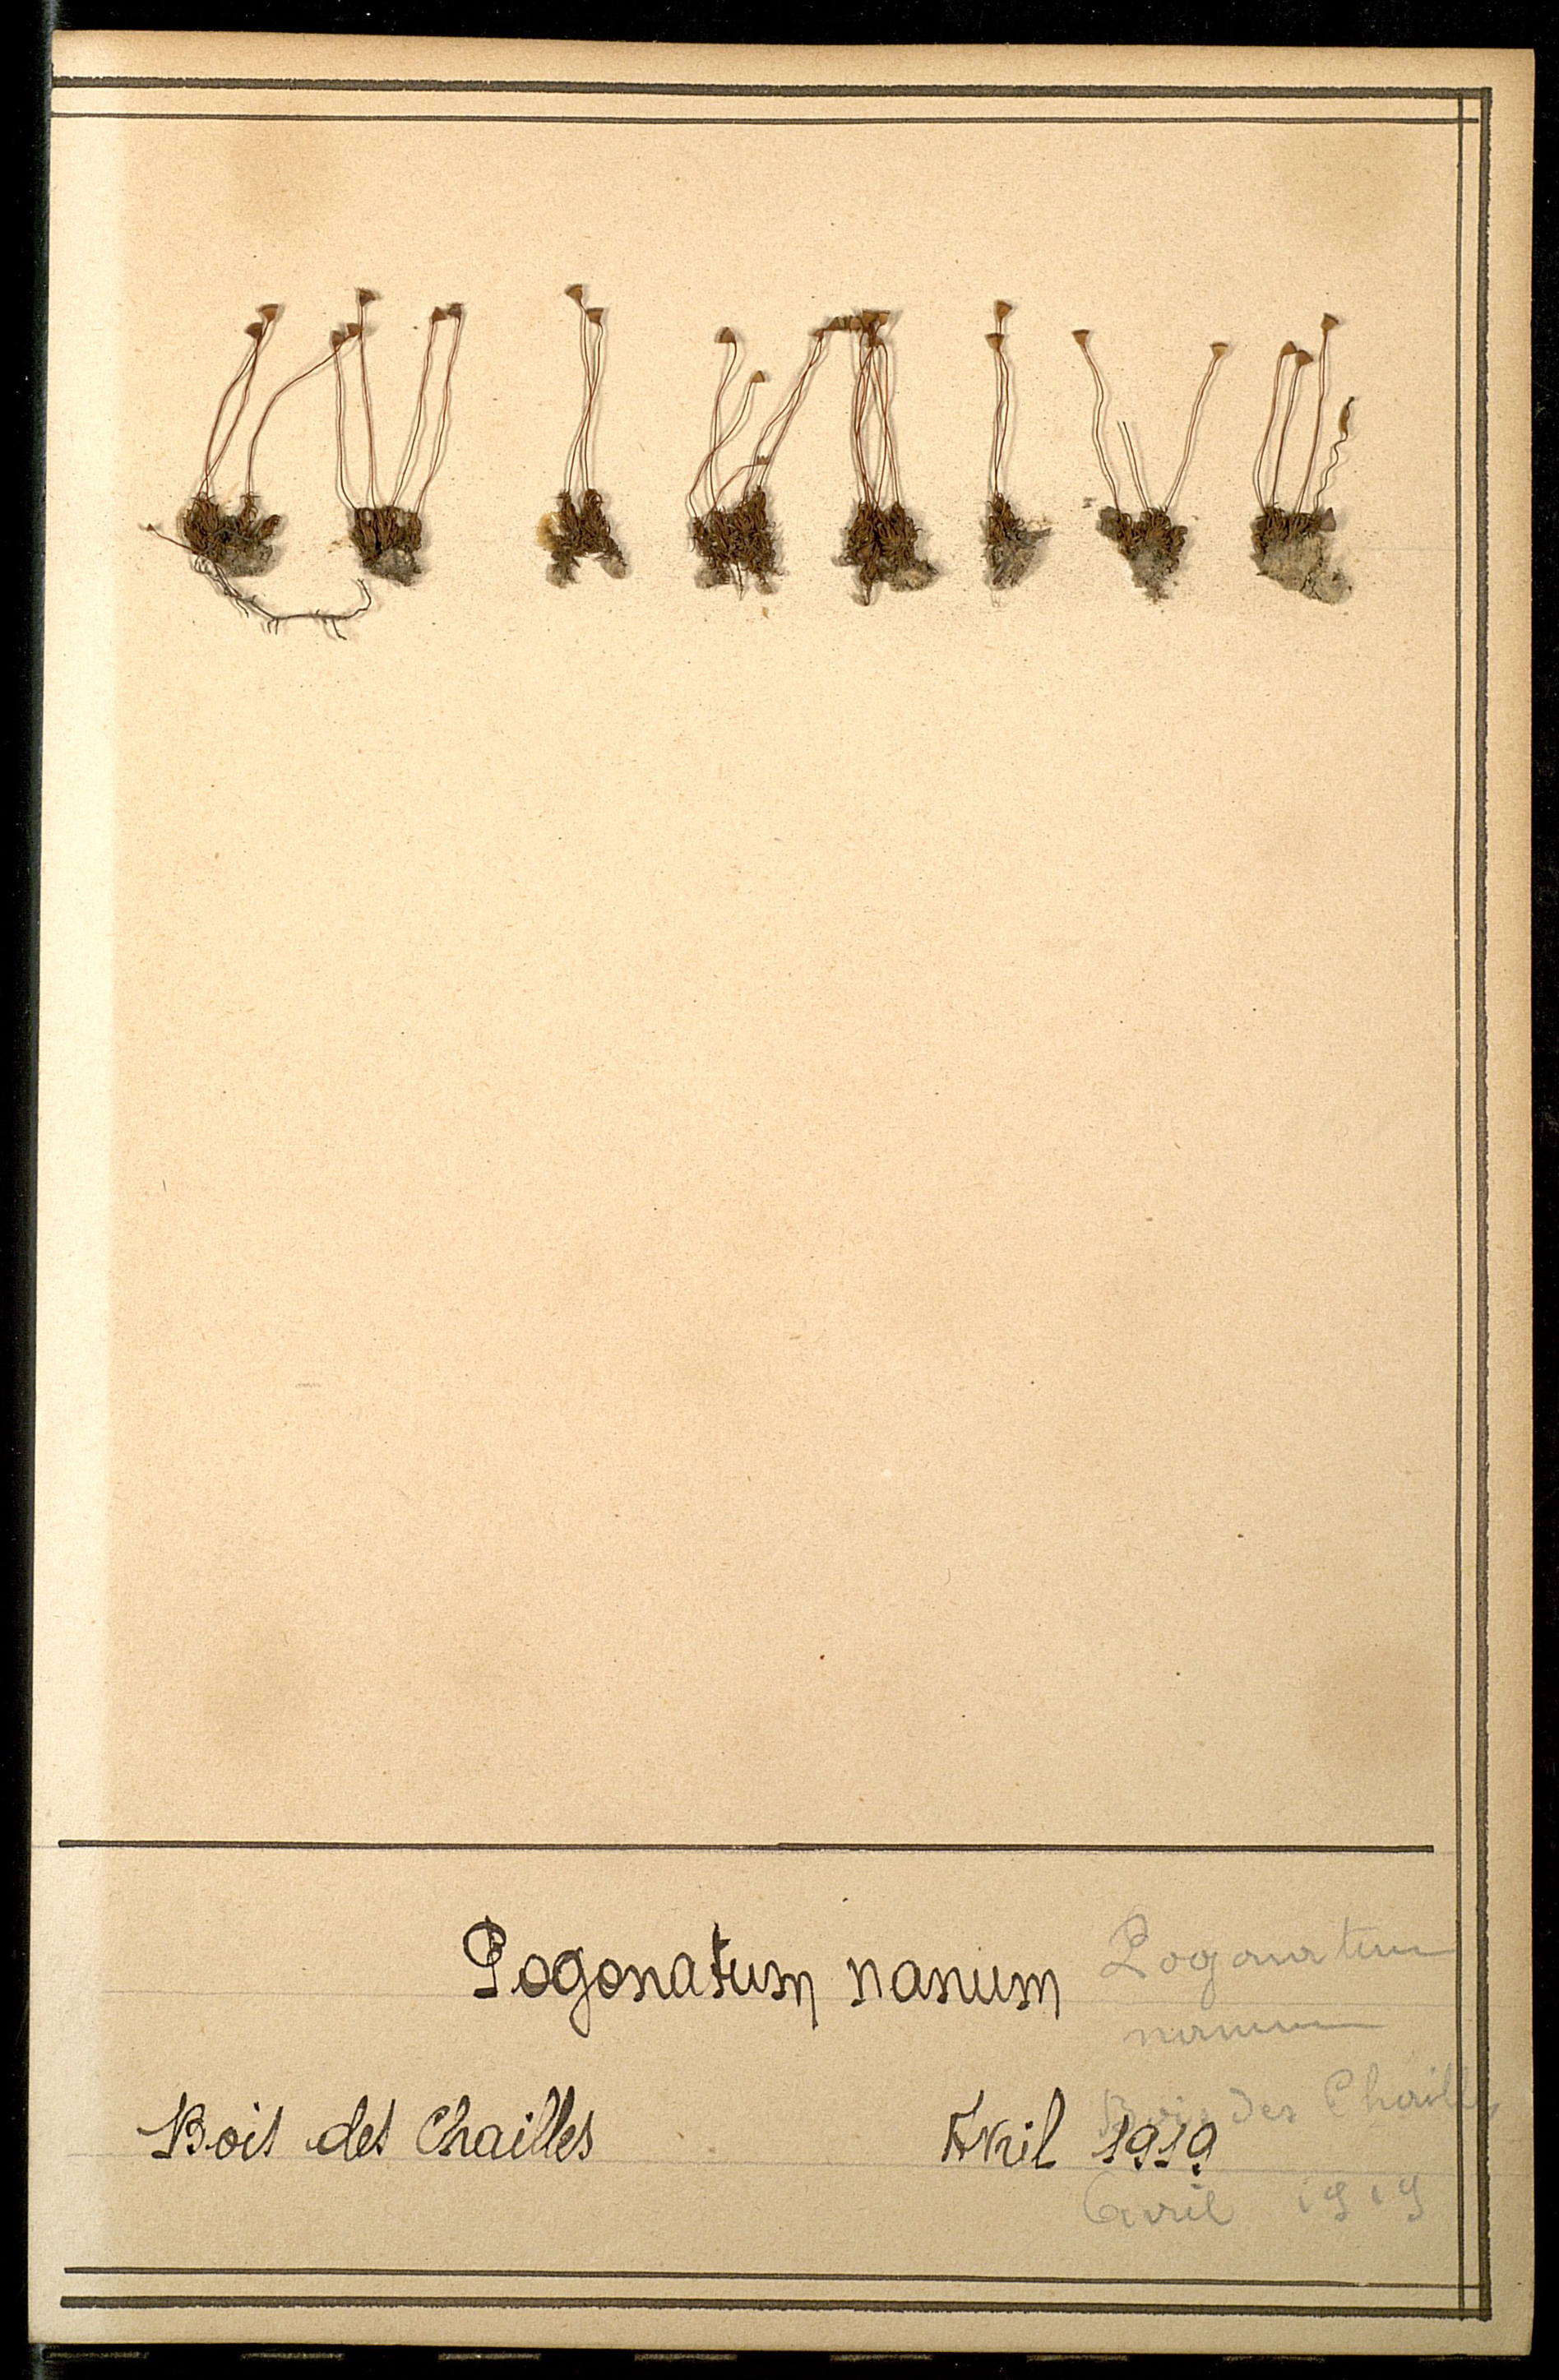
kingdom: Plantae
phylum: Bryophyta
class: Polytrichopsida
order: Polytrichales
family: Polytrichaceae
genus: Pogonatum
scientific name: Pogonatum nanum
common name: Dwarf haircap
